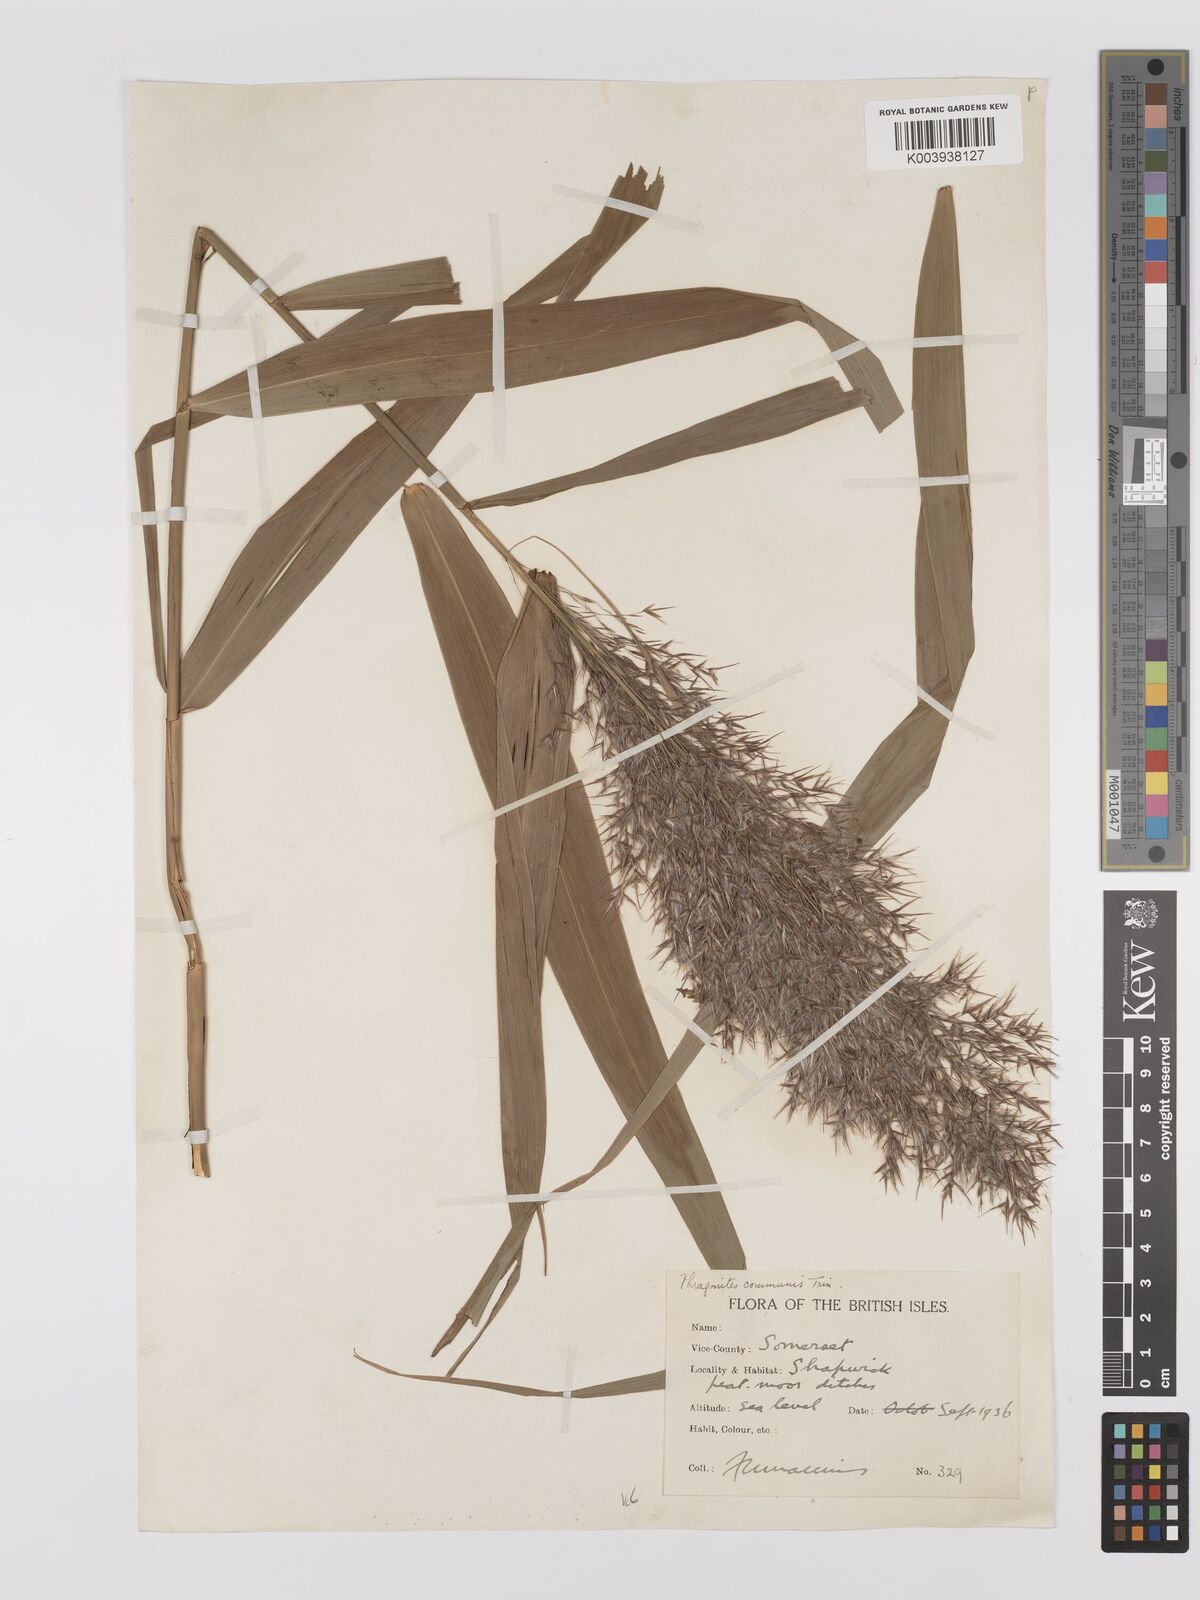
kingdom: Plantae
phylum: Tracheophyta
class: Liliopsida
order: Poales
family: Poaceae
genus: Phragmites
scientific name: Phragmites australis
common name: Common reed
